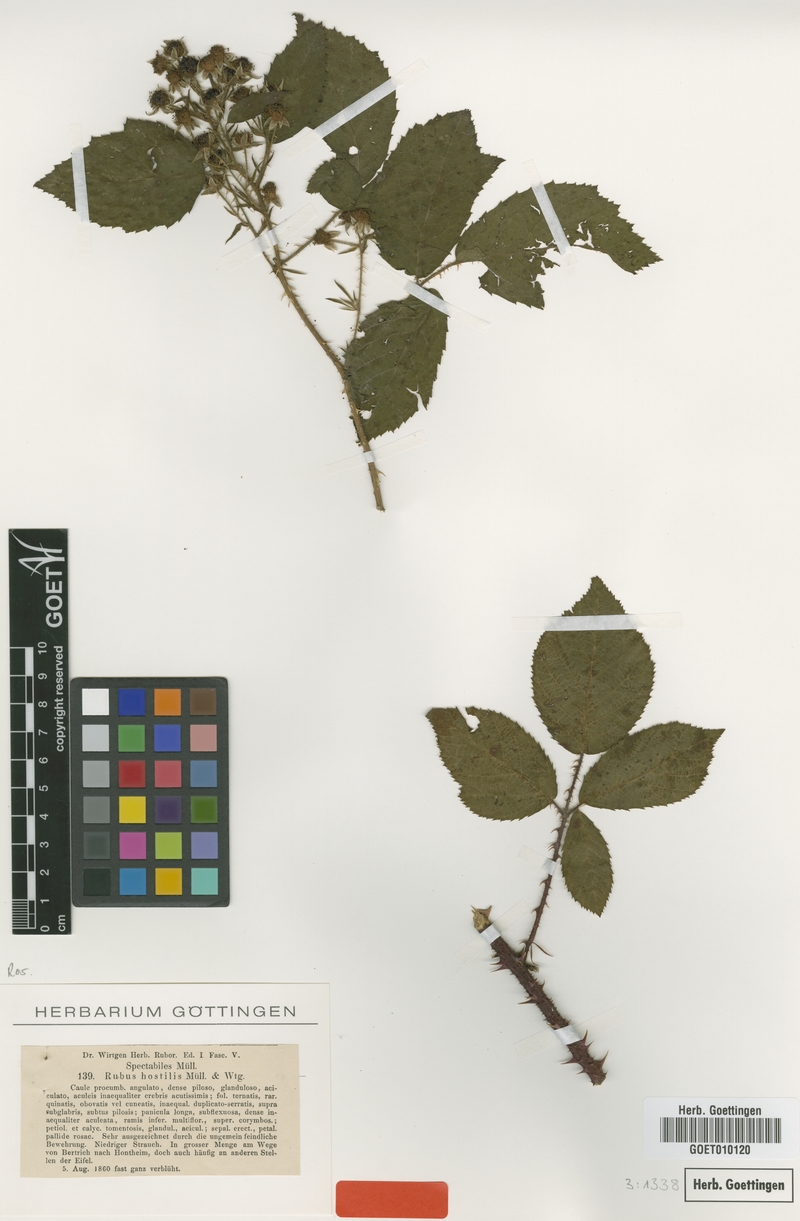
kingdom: Plantae
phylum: Tracheophyta
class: Magnoliopsida
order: Rosales
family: Rosaceae
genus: Rubus
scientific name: Rubus hostilis
